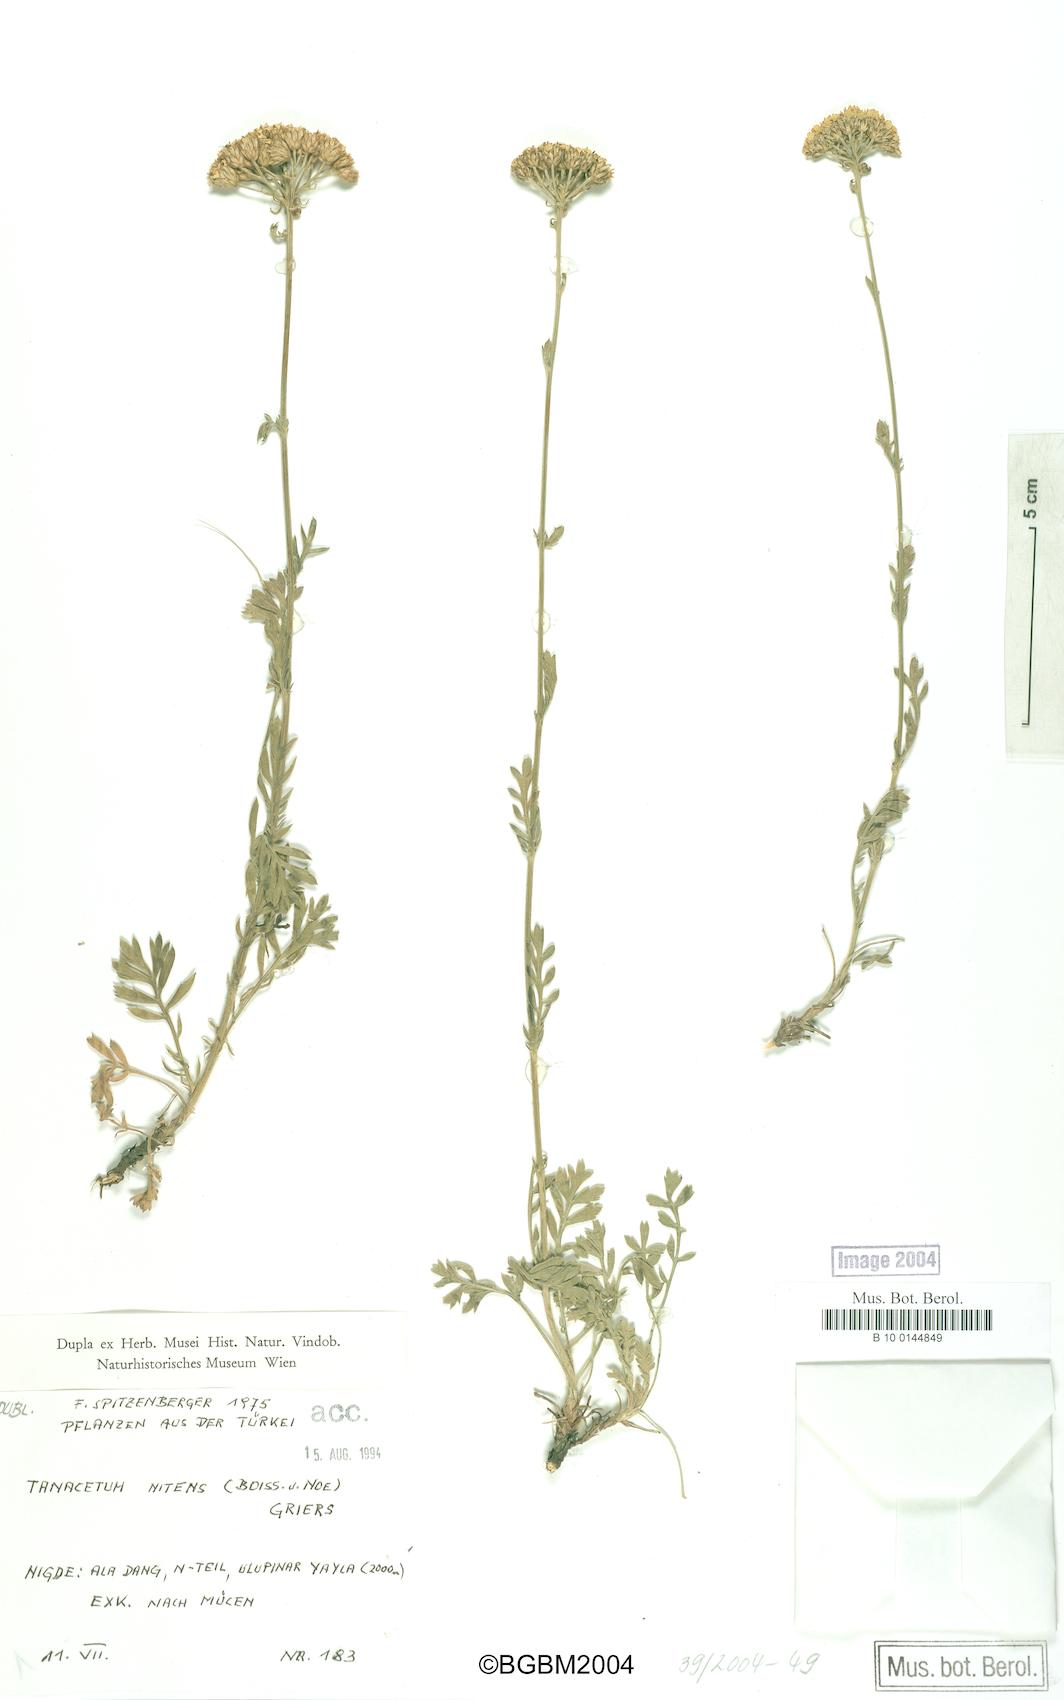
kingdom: Plantae
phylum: Tracheophyta
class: Magnoliopsida
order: Asterales
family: Asteraceae
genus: Tanacetum
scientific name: Tanacetum nitens
